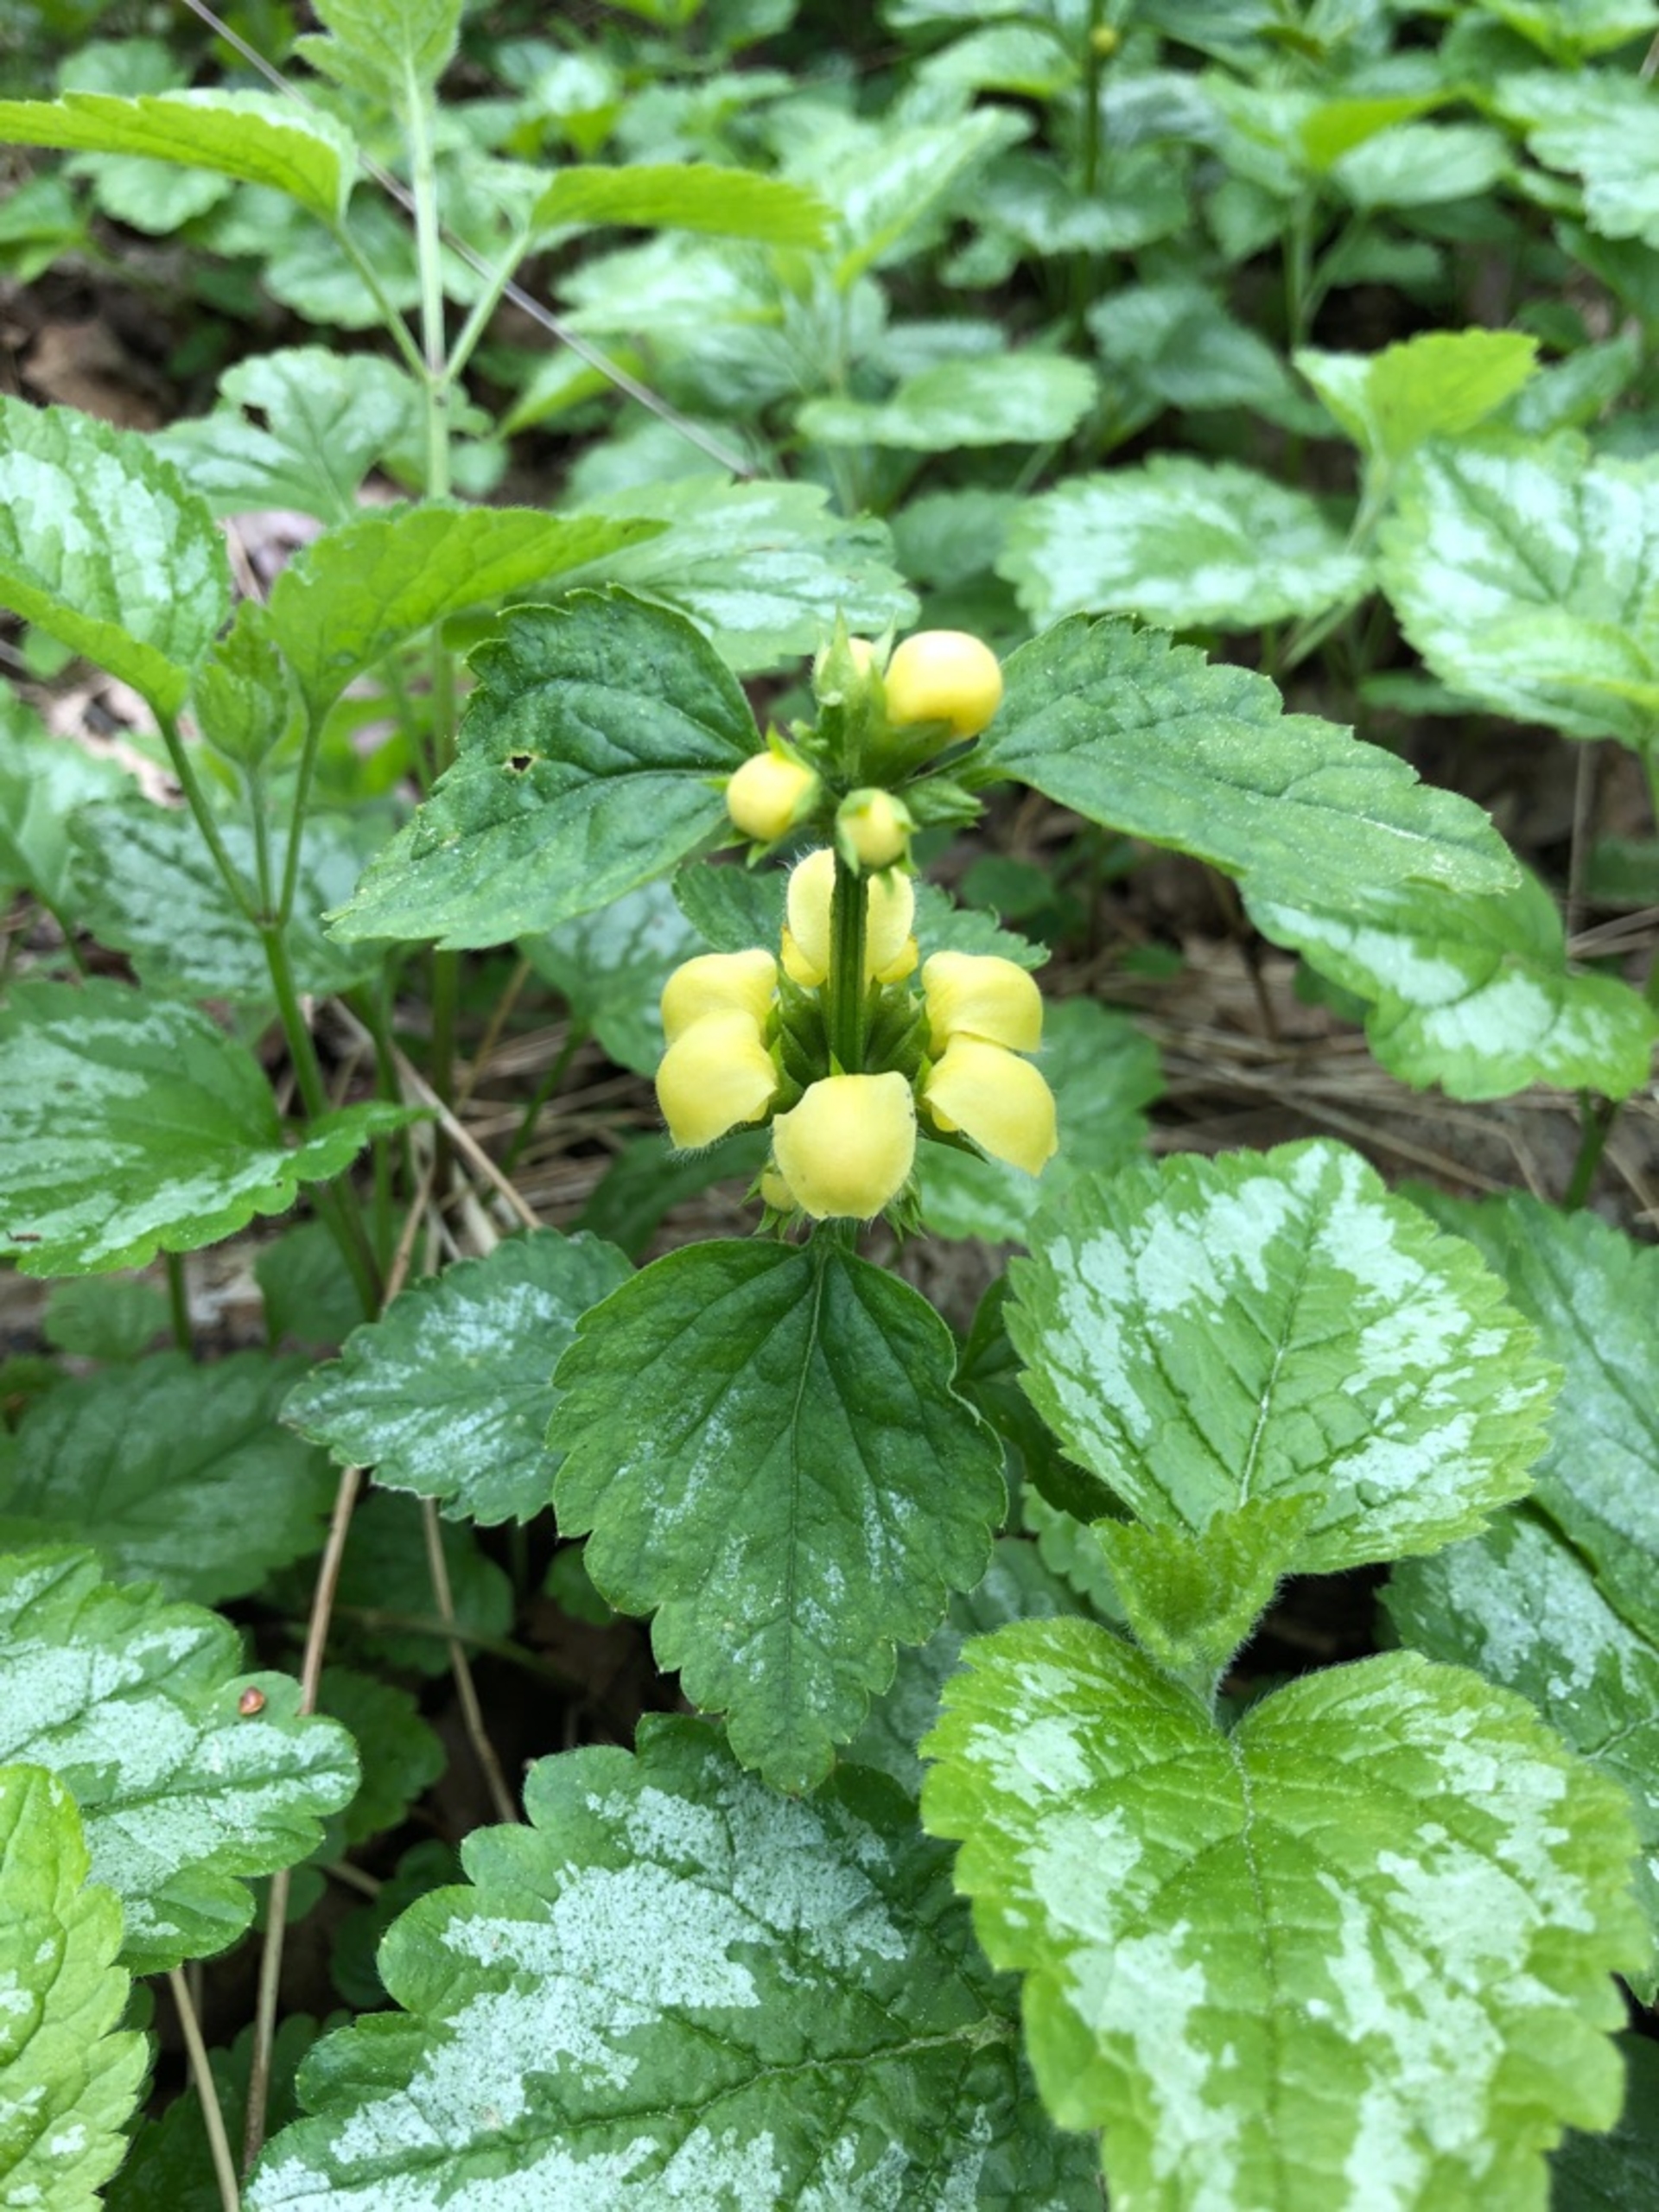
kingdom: Plantae
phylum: Tracheophyta
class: Magnoliopsida
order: Lamiales
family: Lamiaceae
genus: Lamium
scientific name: Lamium galeobdolon
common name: Have-guldnælde
